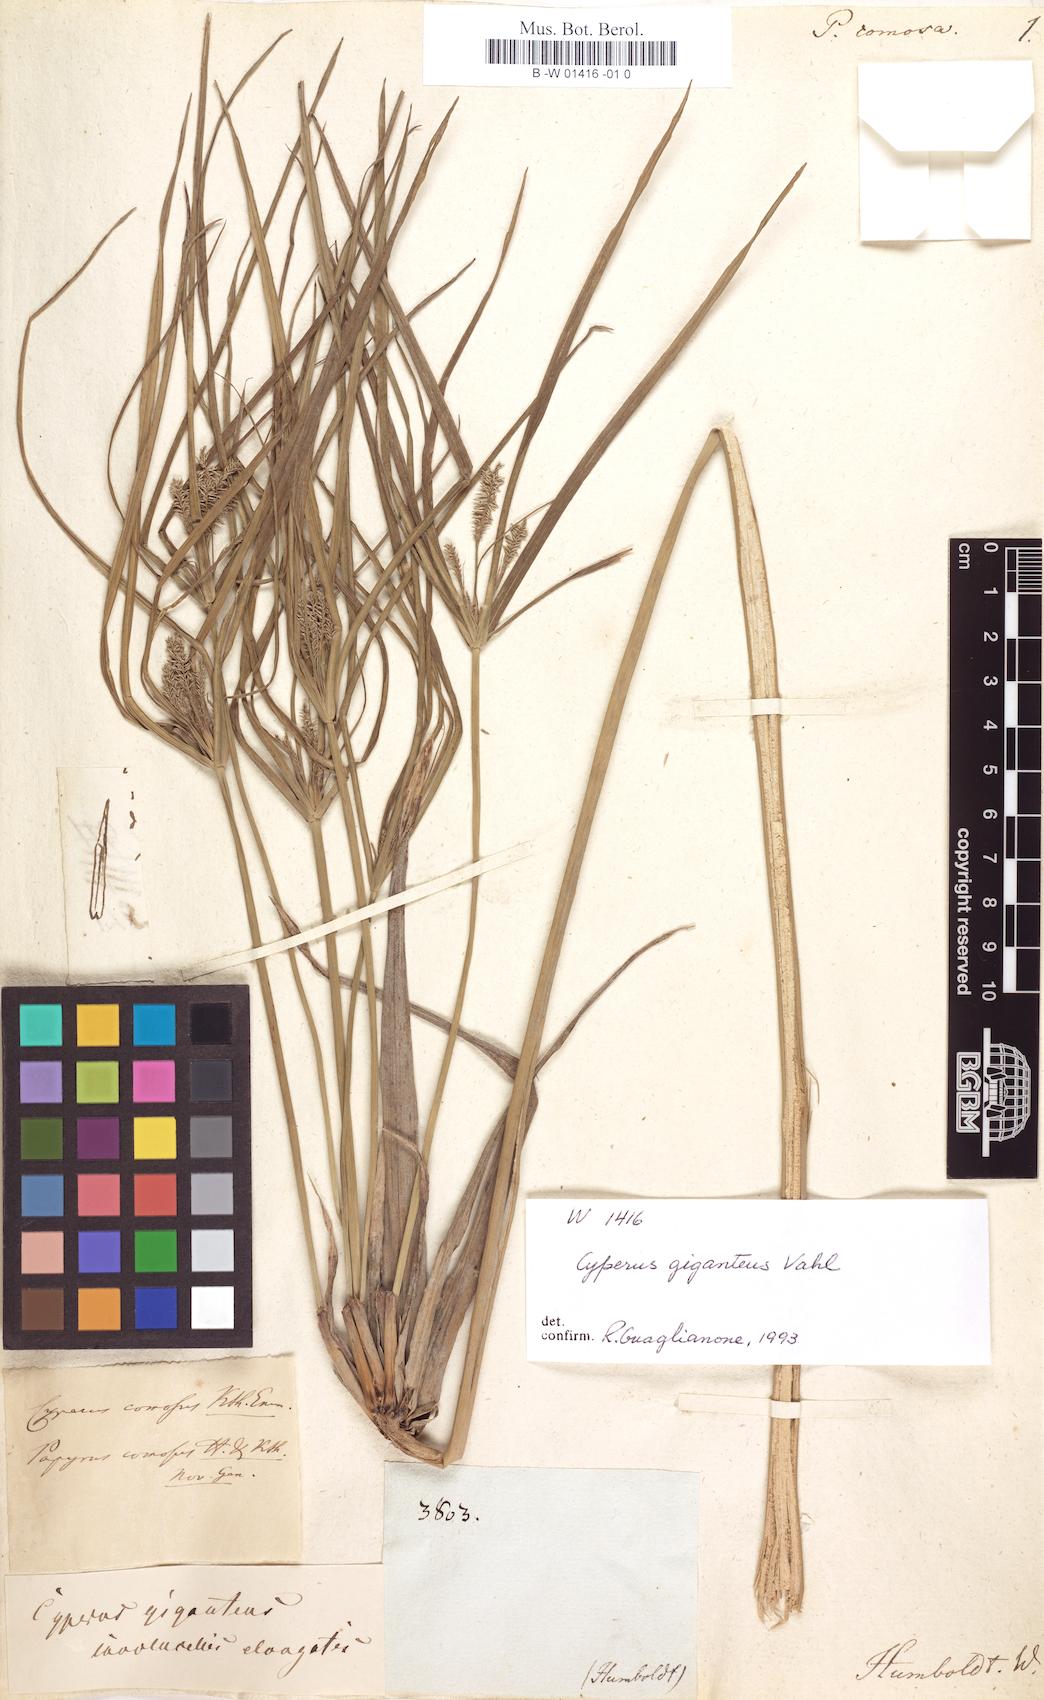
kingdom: Plantae
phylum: Tracheophyta
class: Liliopsida
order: Poales
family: Cyperaceae
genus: Cyperus
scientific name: Cyperus affinis
